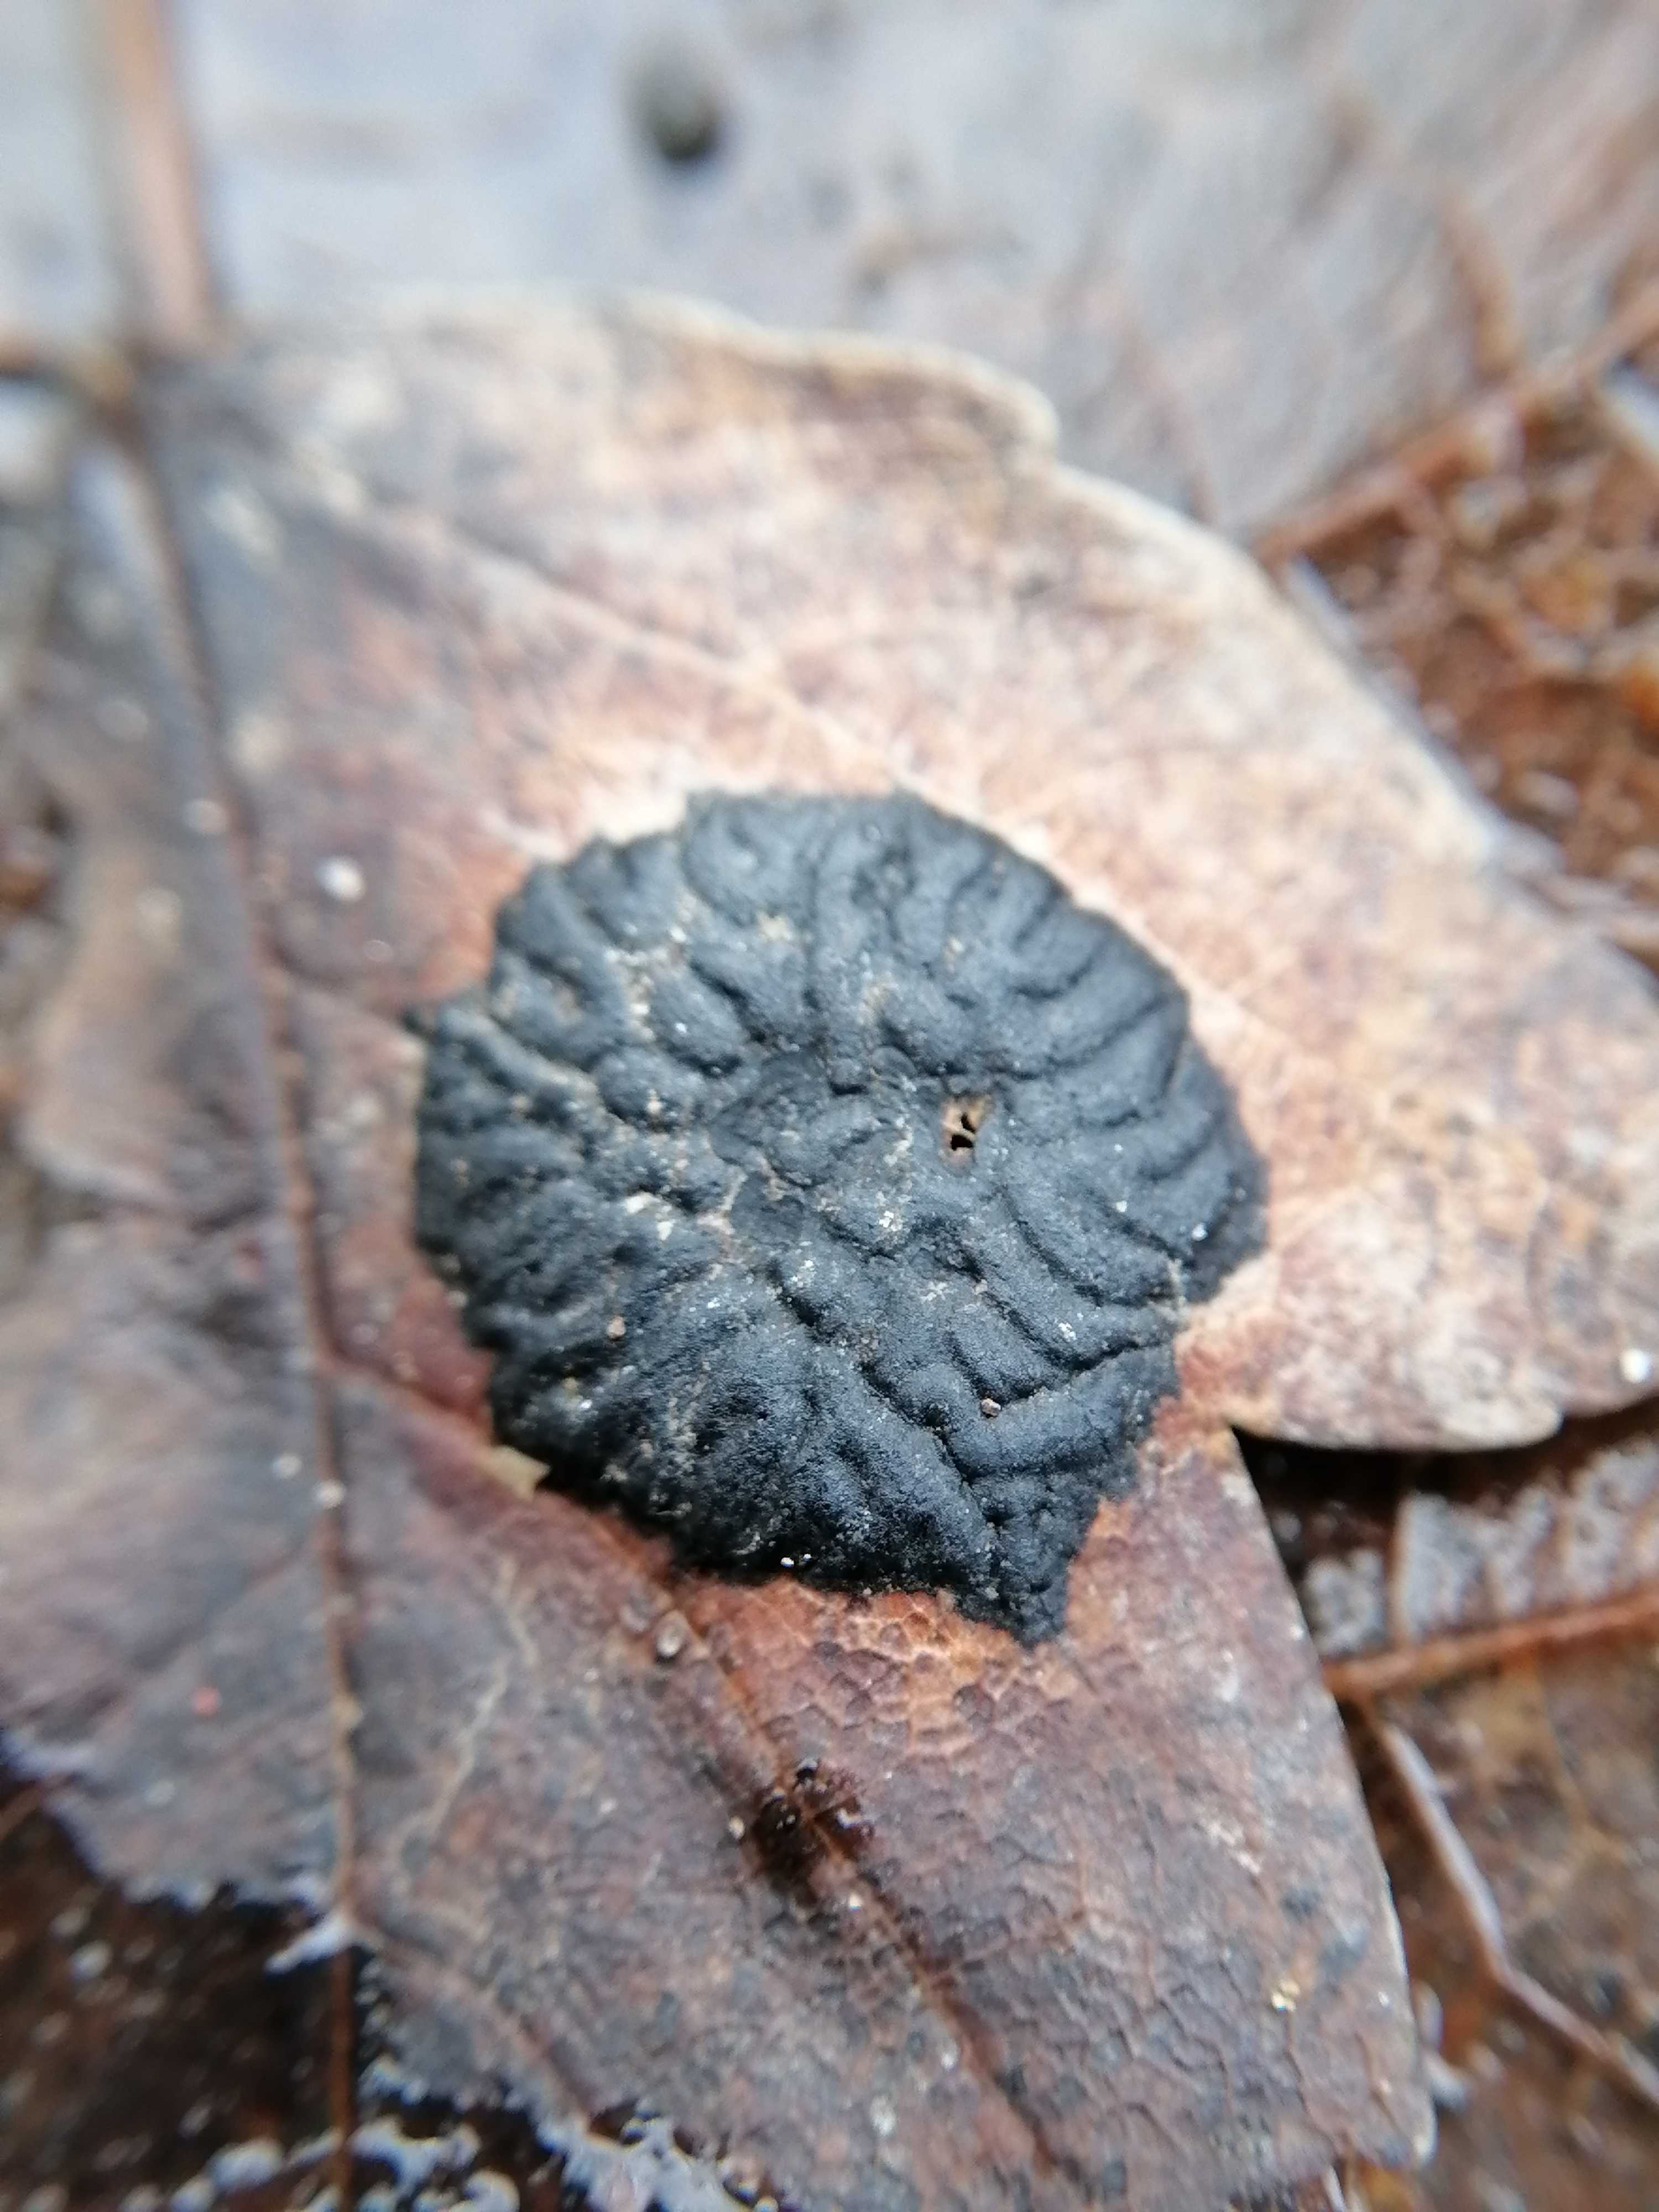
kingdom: Fungi
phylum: Ascomycota
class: Leotiomycetes
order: Rhytismatales
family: Rhytismataceae
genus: Rhytisma
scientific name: Rhytisma acerinum
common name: ahorn-rynkeplet
